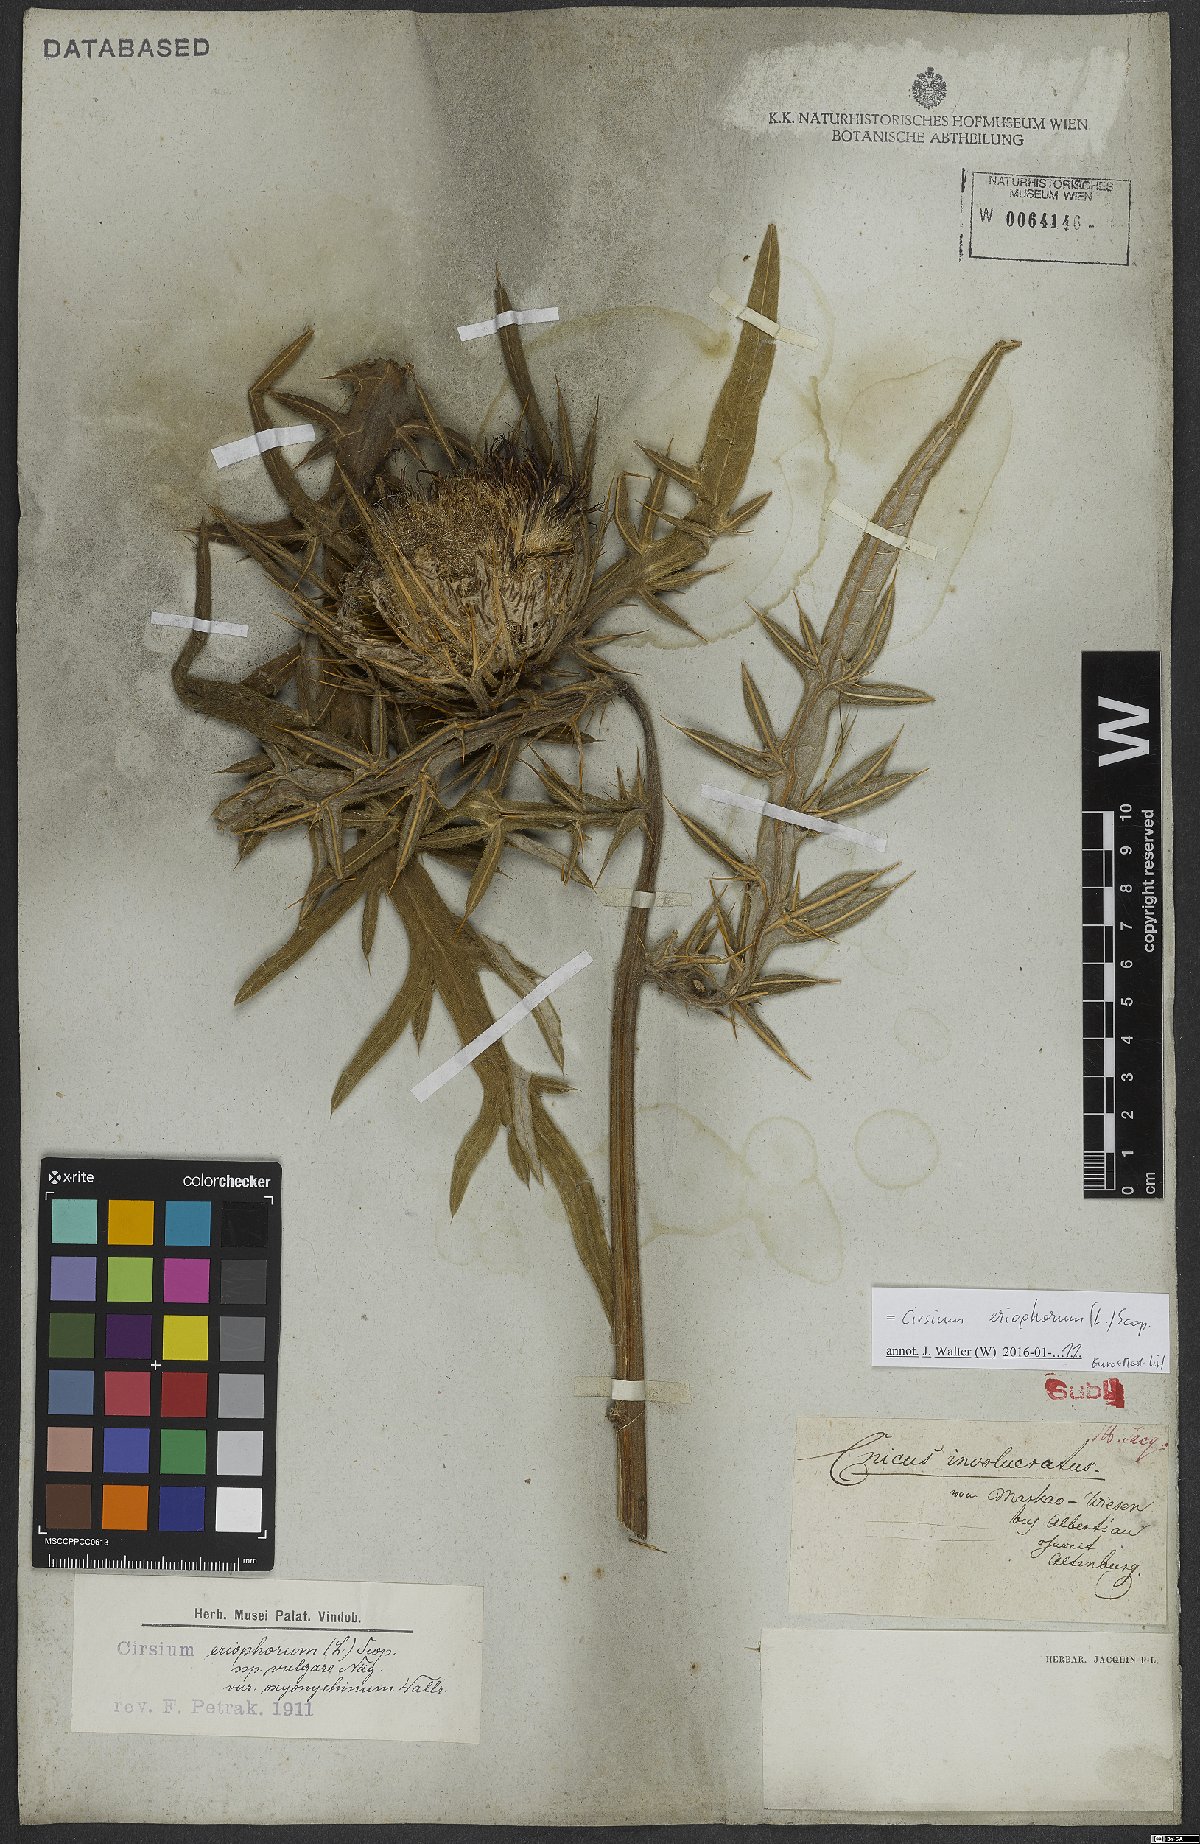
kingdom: Plantae
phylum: Tracheophyta
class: Magnoliopsida
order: Asterales
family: Asteraceae
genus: Lophiolepis
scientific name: Lophiolepis eriophora
